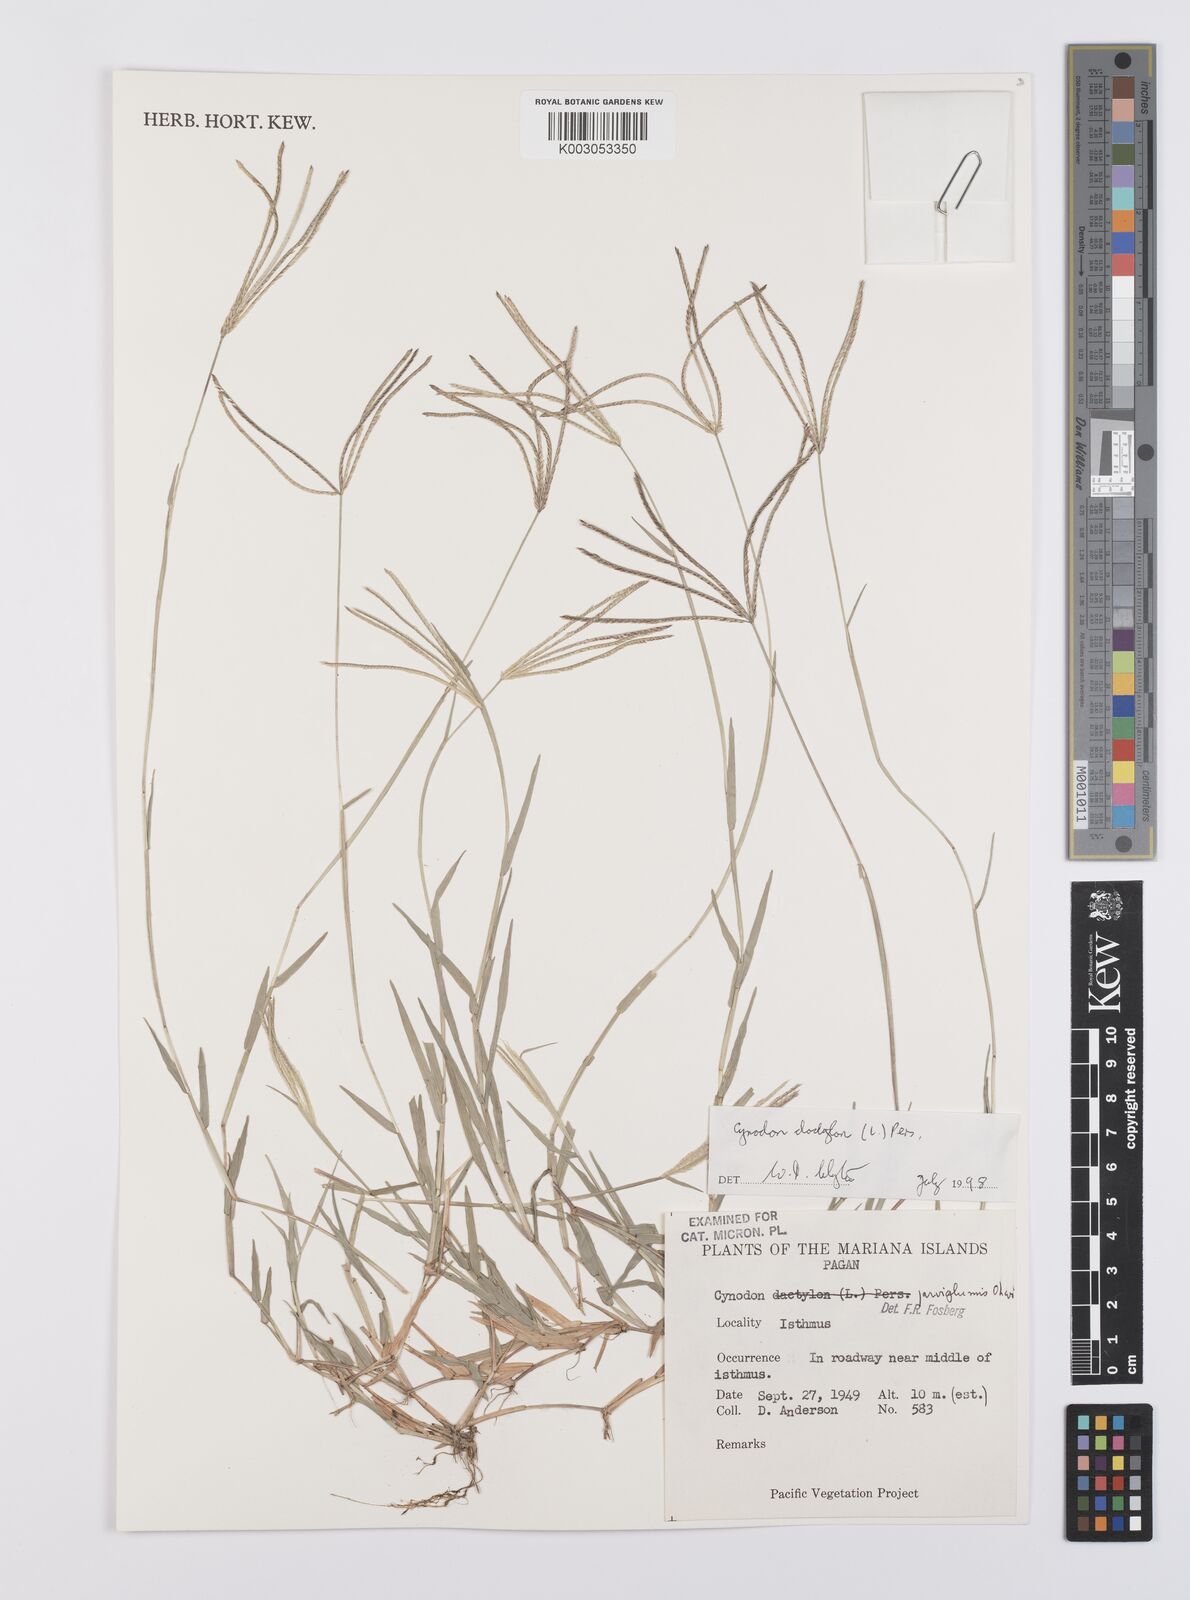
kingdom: Plantae
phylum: Tracheophyta
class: Liliopsida
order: Poales
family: Poaceae
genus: Cynodon
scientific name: Cynodon dactylon
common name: Bermuda grass
